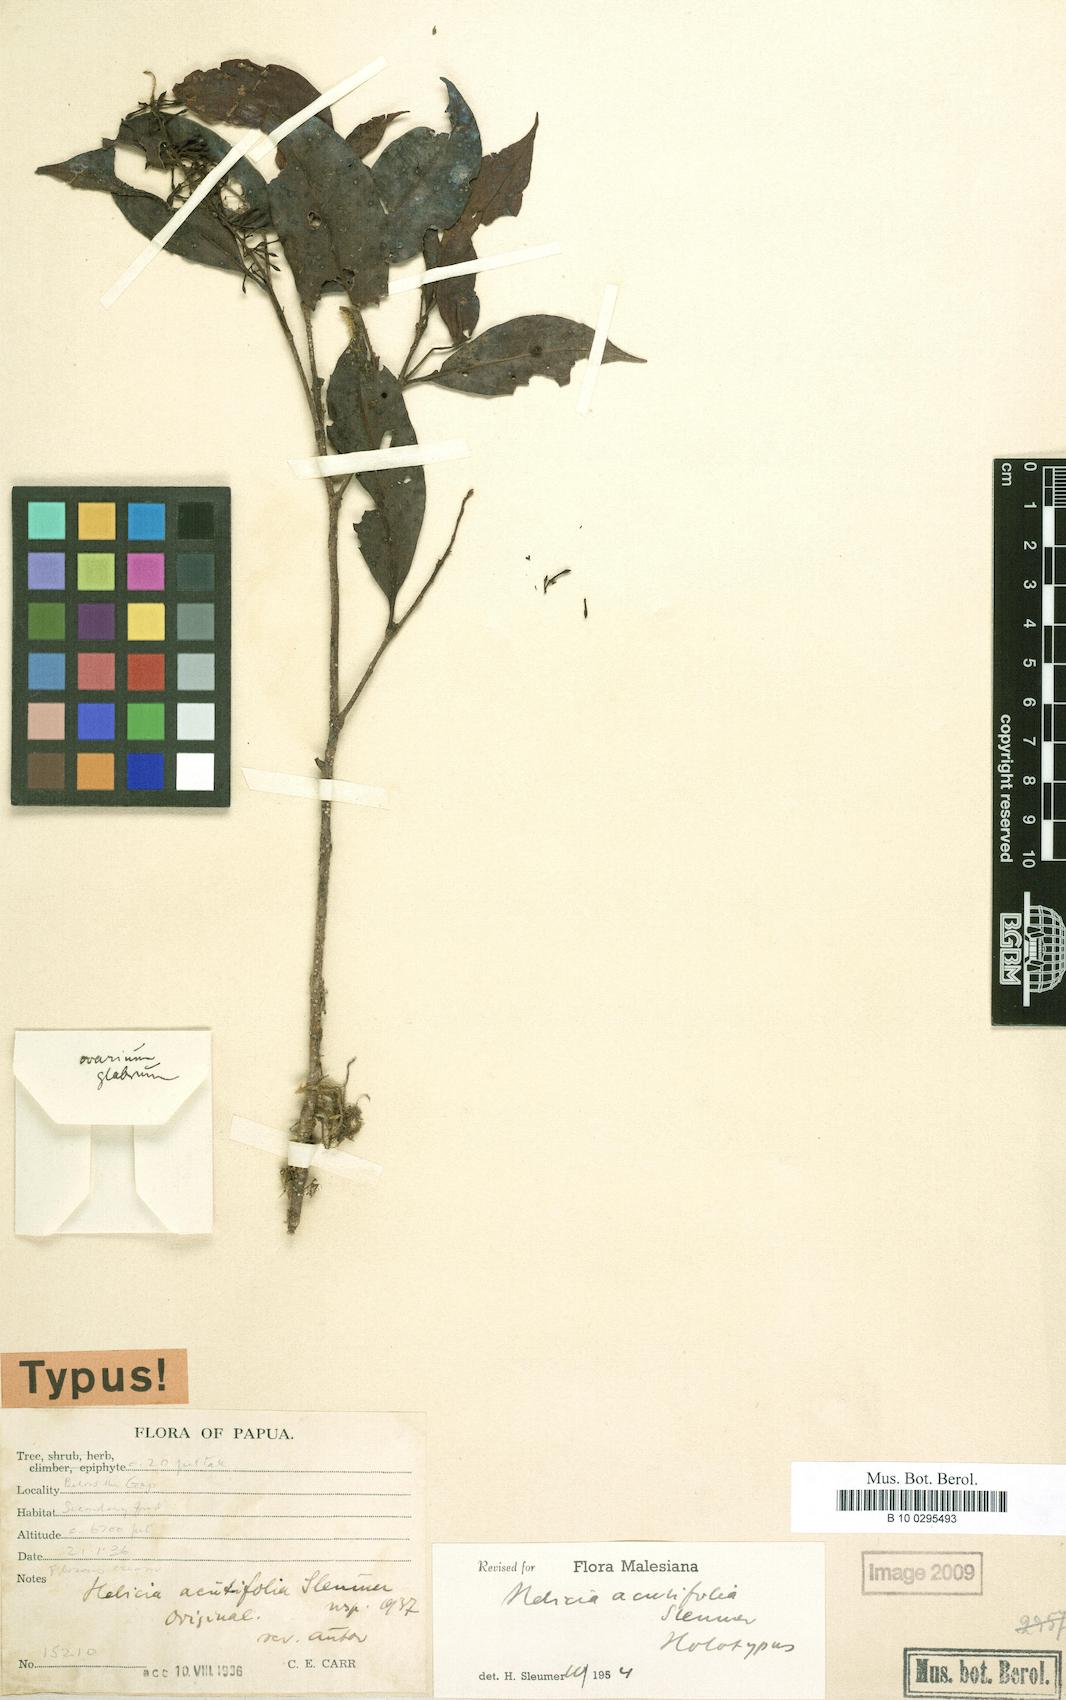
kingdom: Plantae
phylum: Tracheophyta
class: Magnoliopsida
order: Proteales
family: Proteaceae
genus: Helicia
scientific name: Helicia acutifolia
